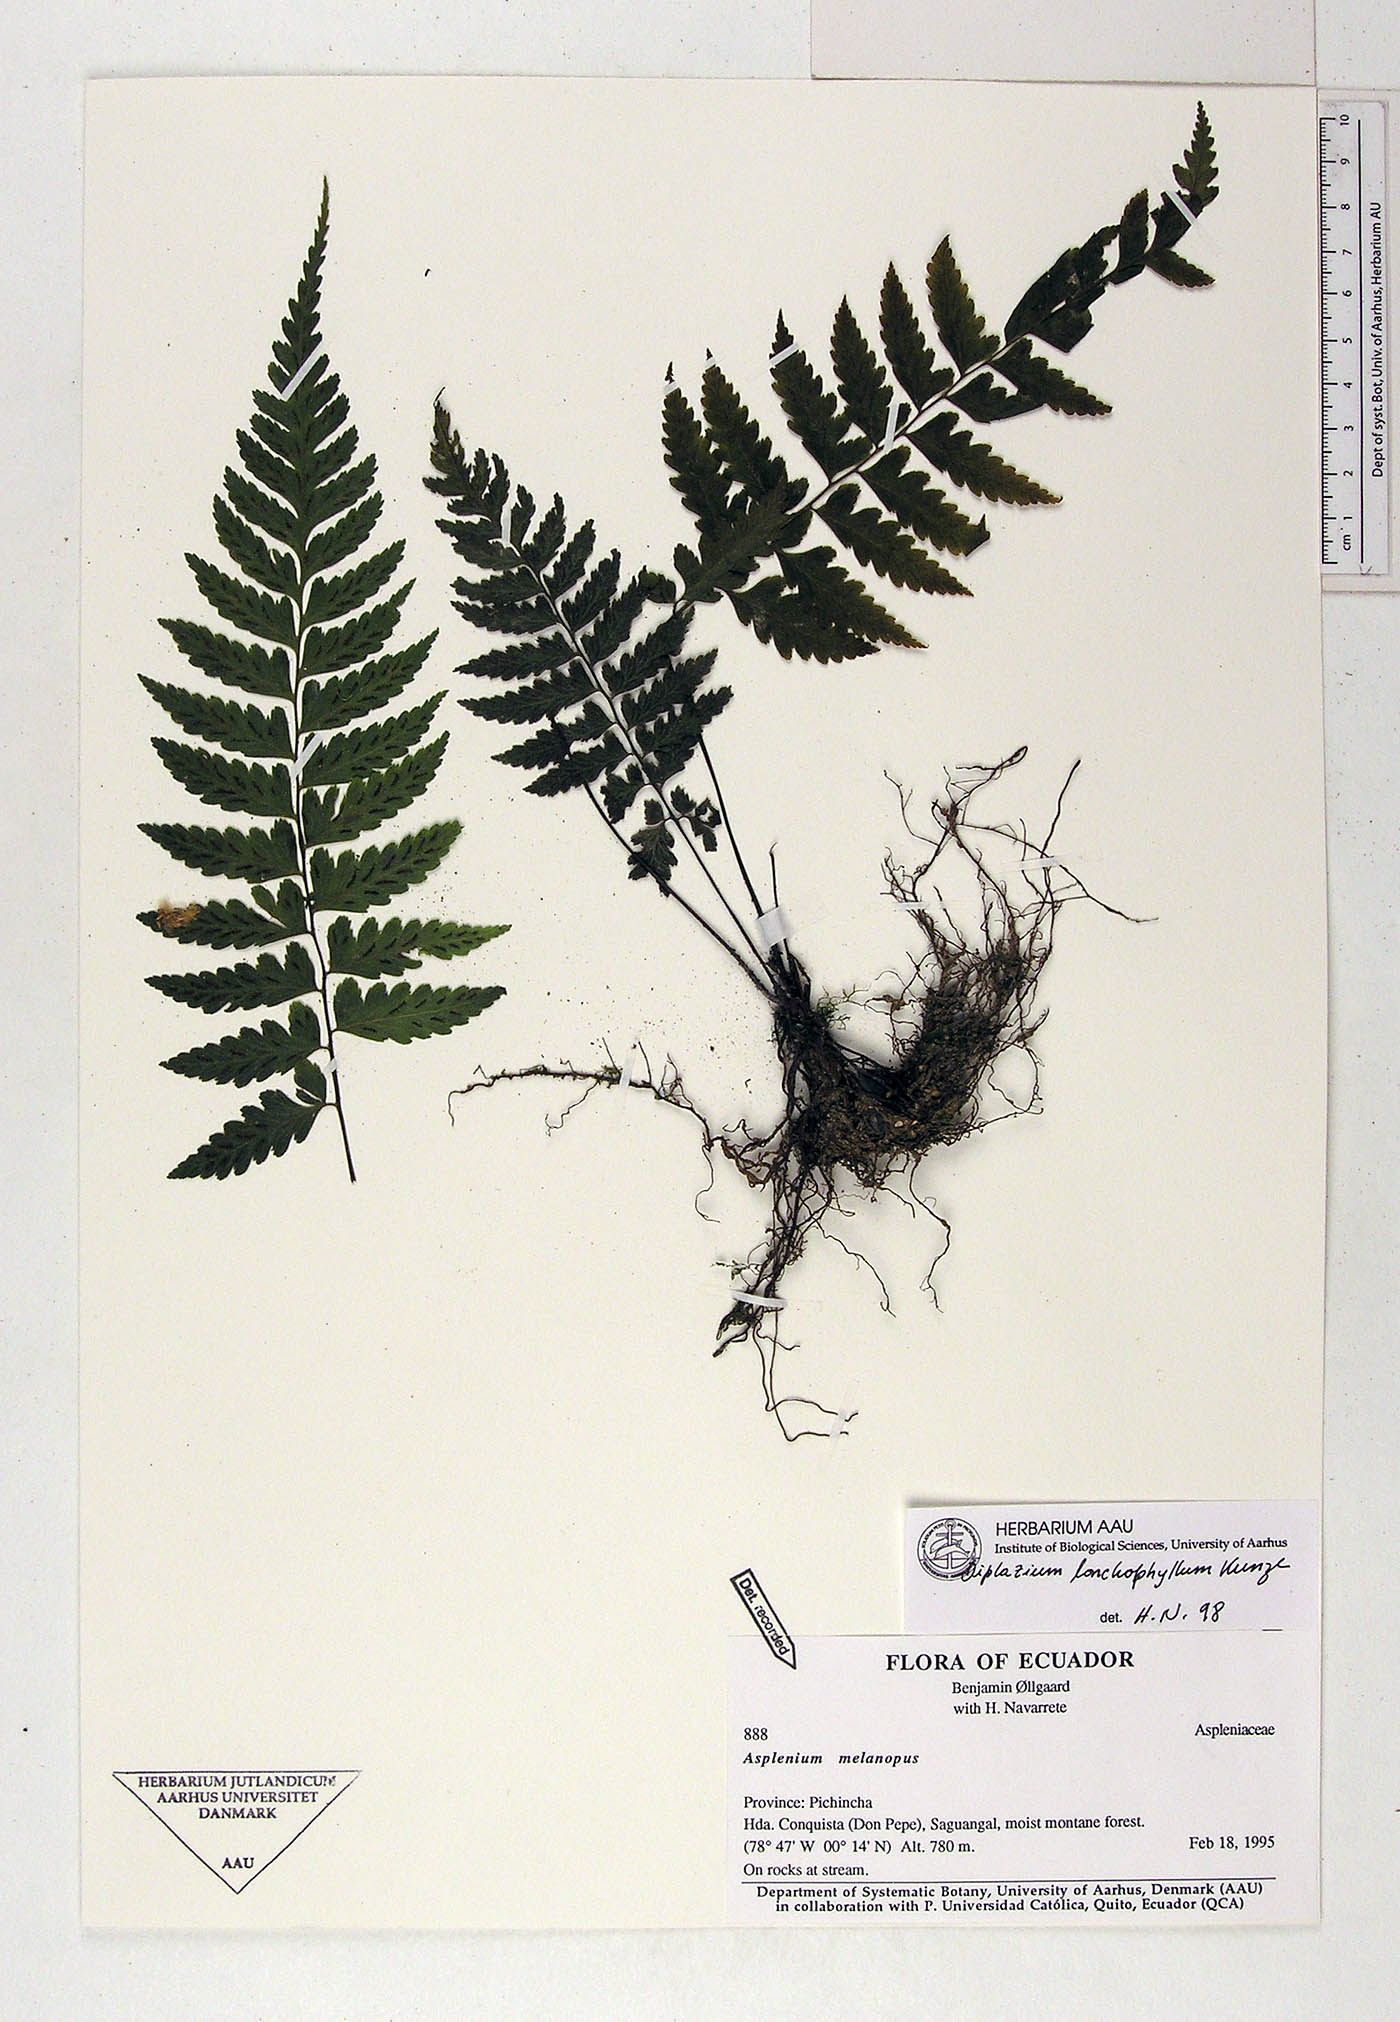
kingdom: Plantae
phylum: Tracheophyta
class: Polypodiopsida
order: Polypodiales
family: Aspleniaceae
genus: Hymenasplenium
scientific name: Hymenasplenium purpurascens
